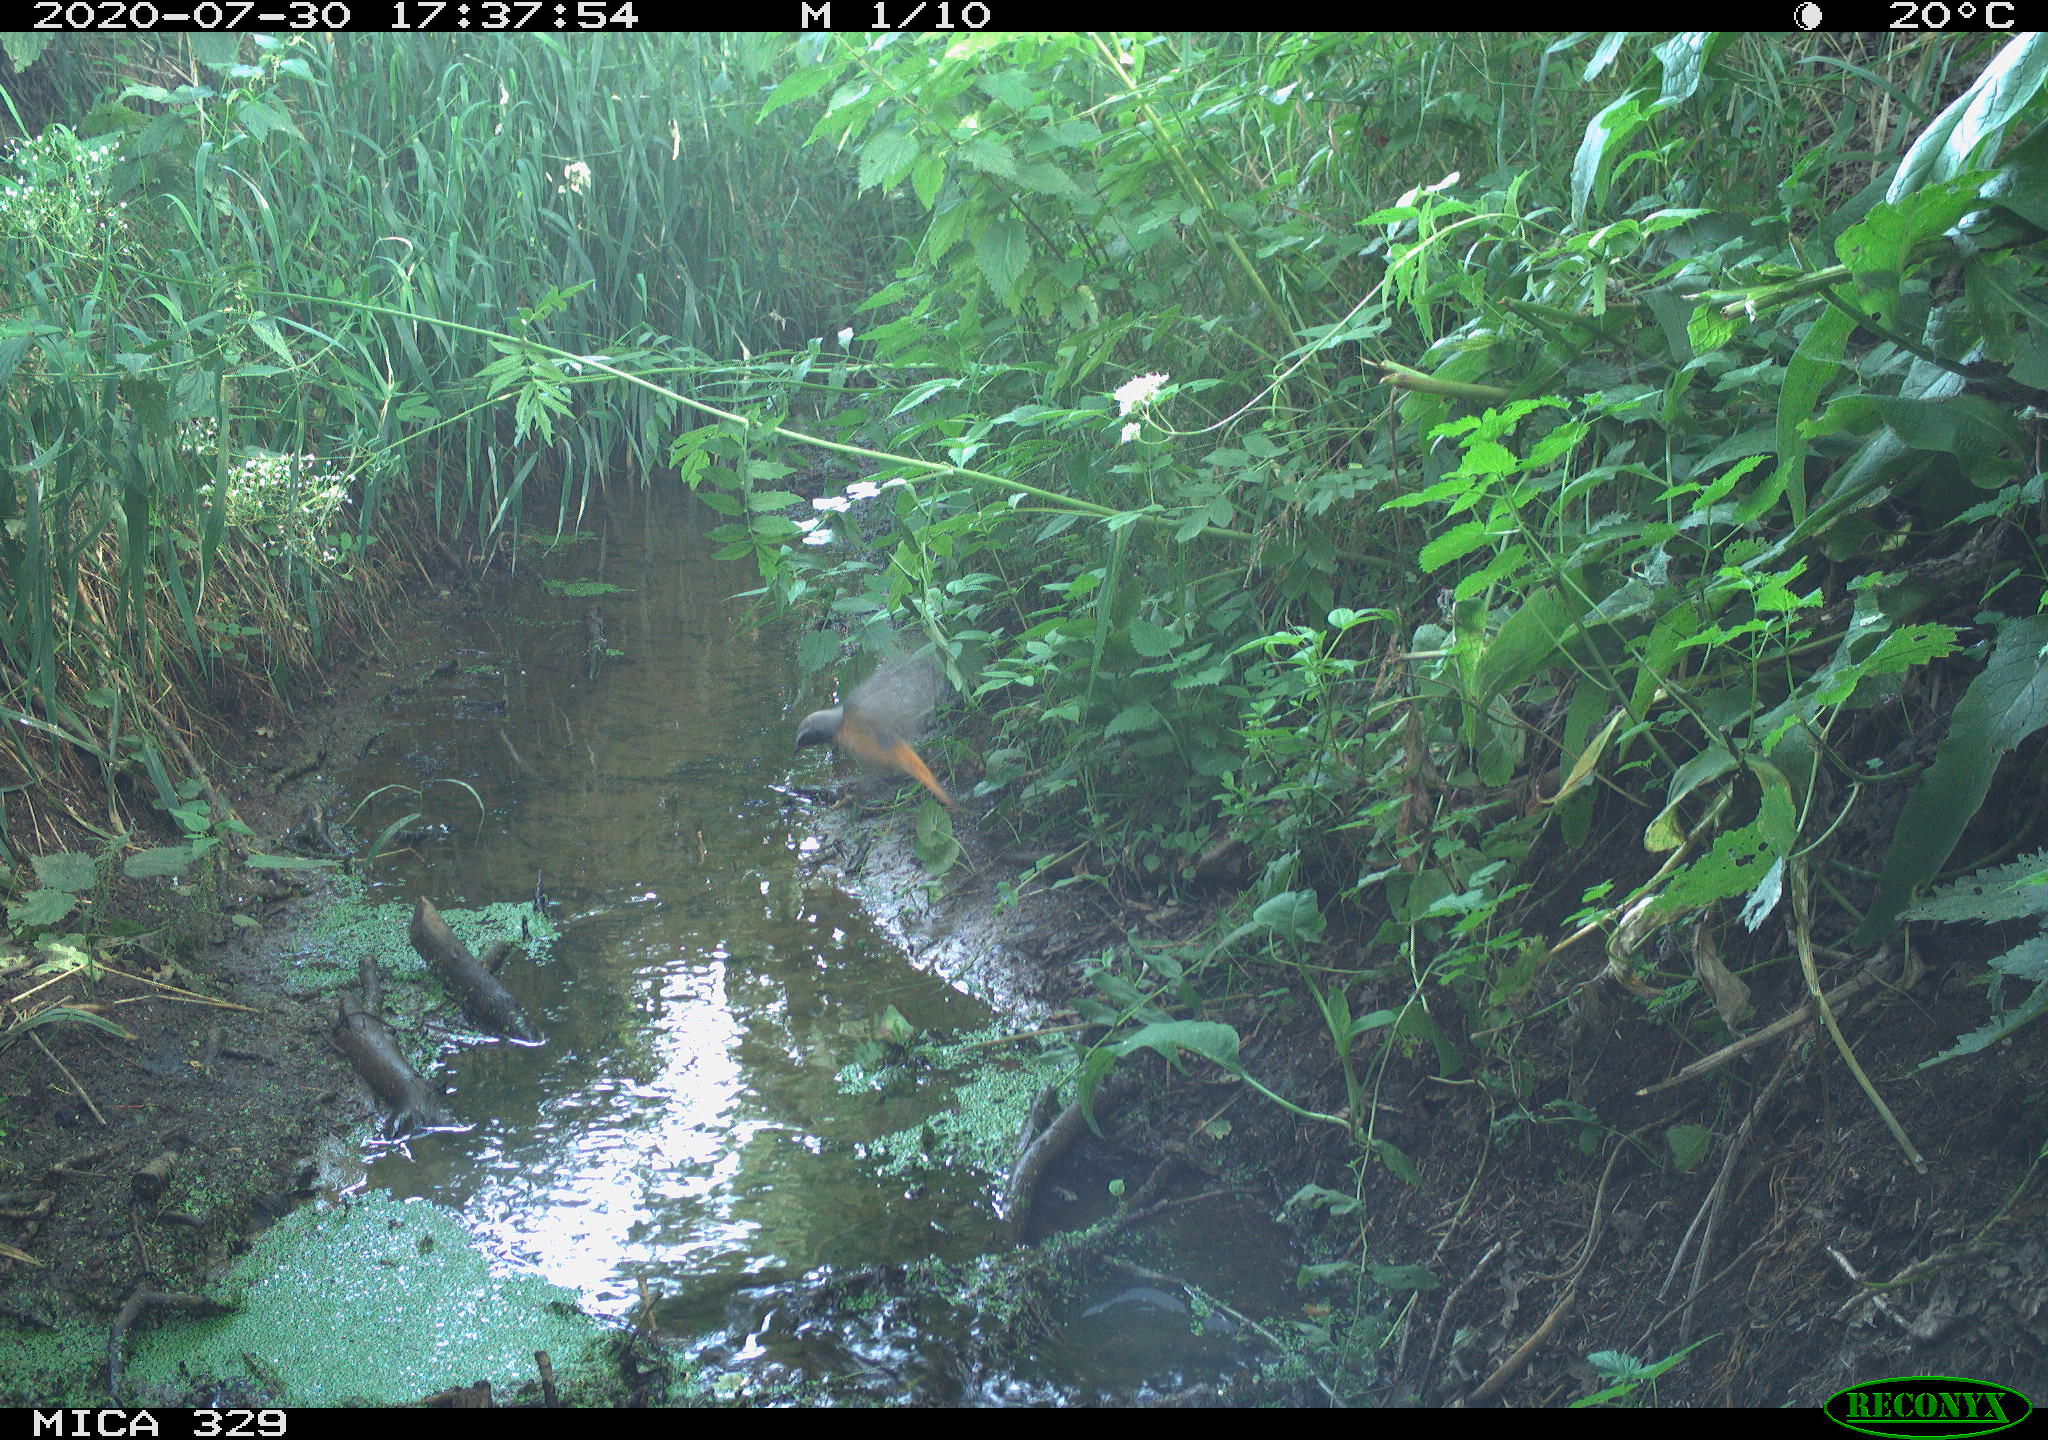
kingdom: Animalia
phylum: Chordata
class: Aves
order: Passeriformes
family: Muscicapidae
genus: Phoenicurus
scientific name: Phoenicurus phoenicurus
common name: Common redstart
